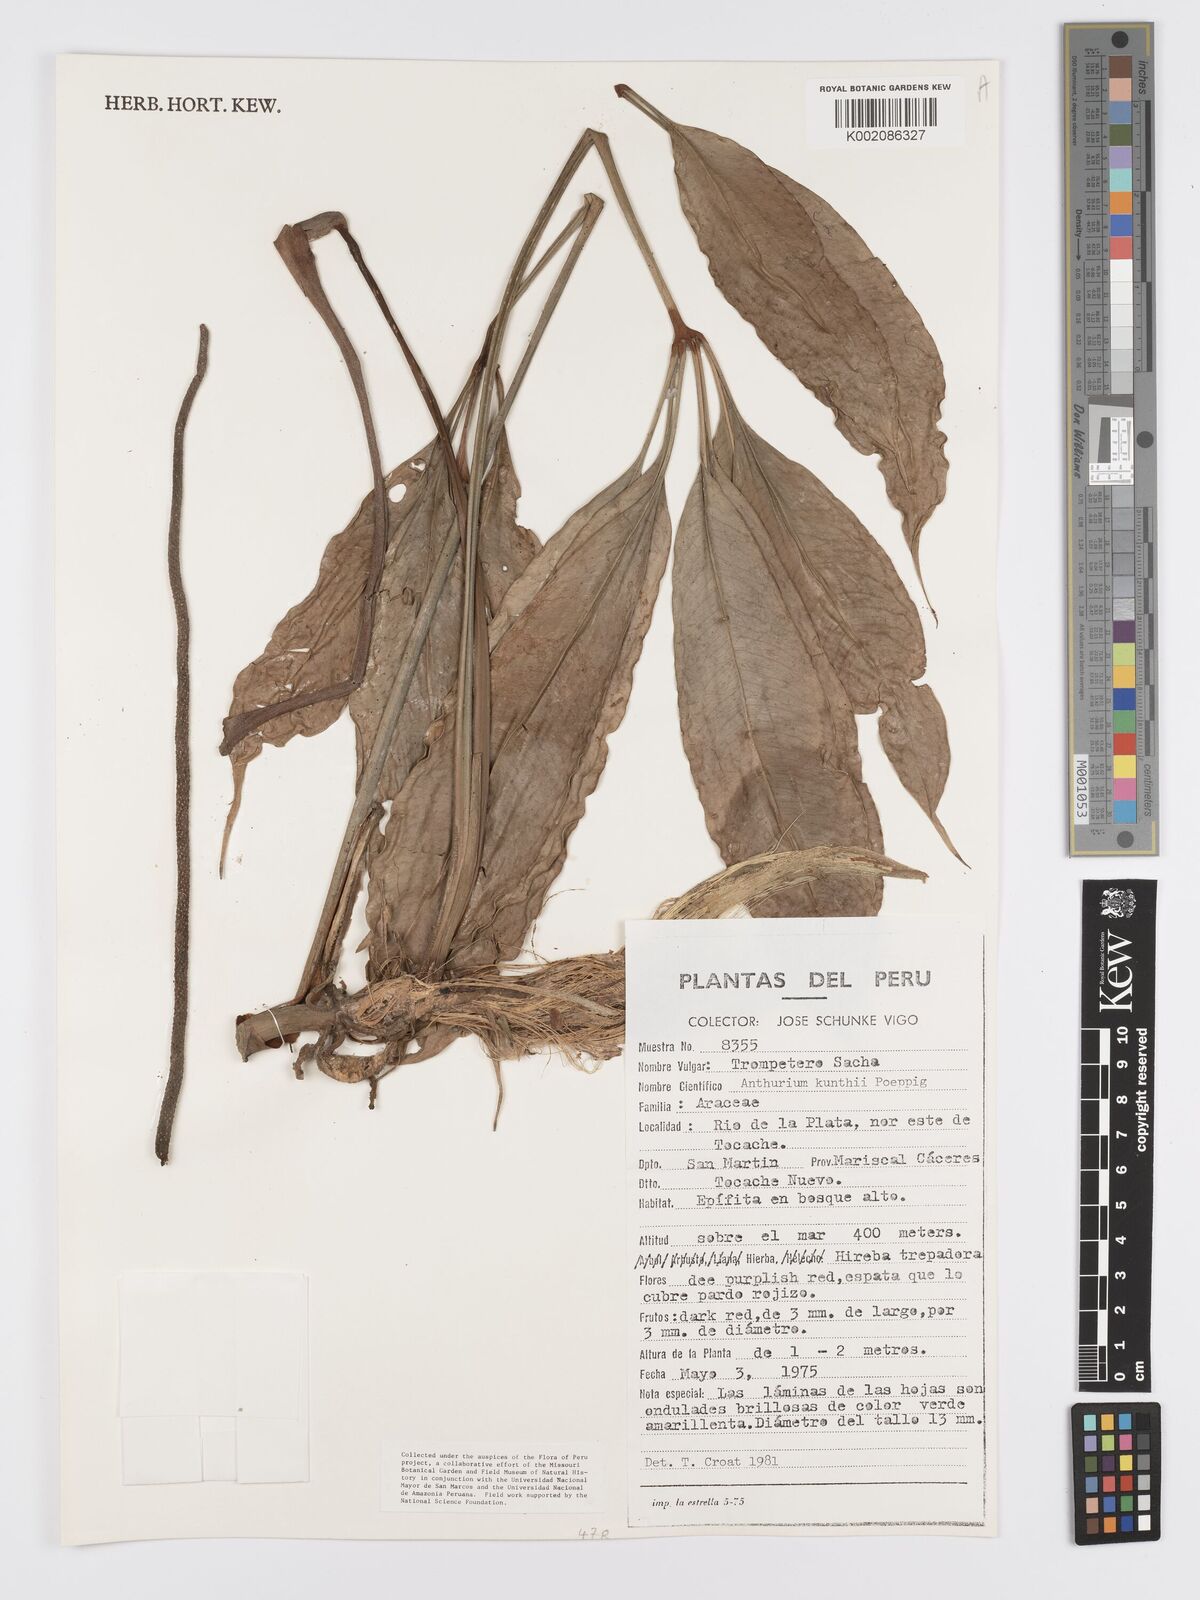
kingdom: Plantae
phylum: Tracheophyta
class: Liliopsida
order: Alismatales
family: Araceae
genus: Anthurium
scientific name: Anthurium kunthii
